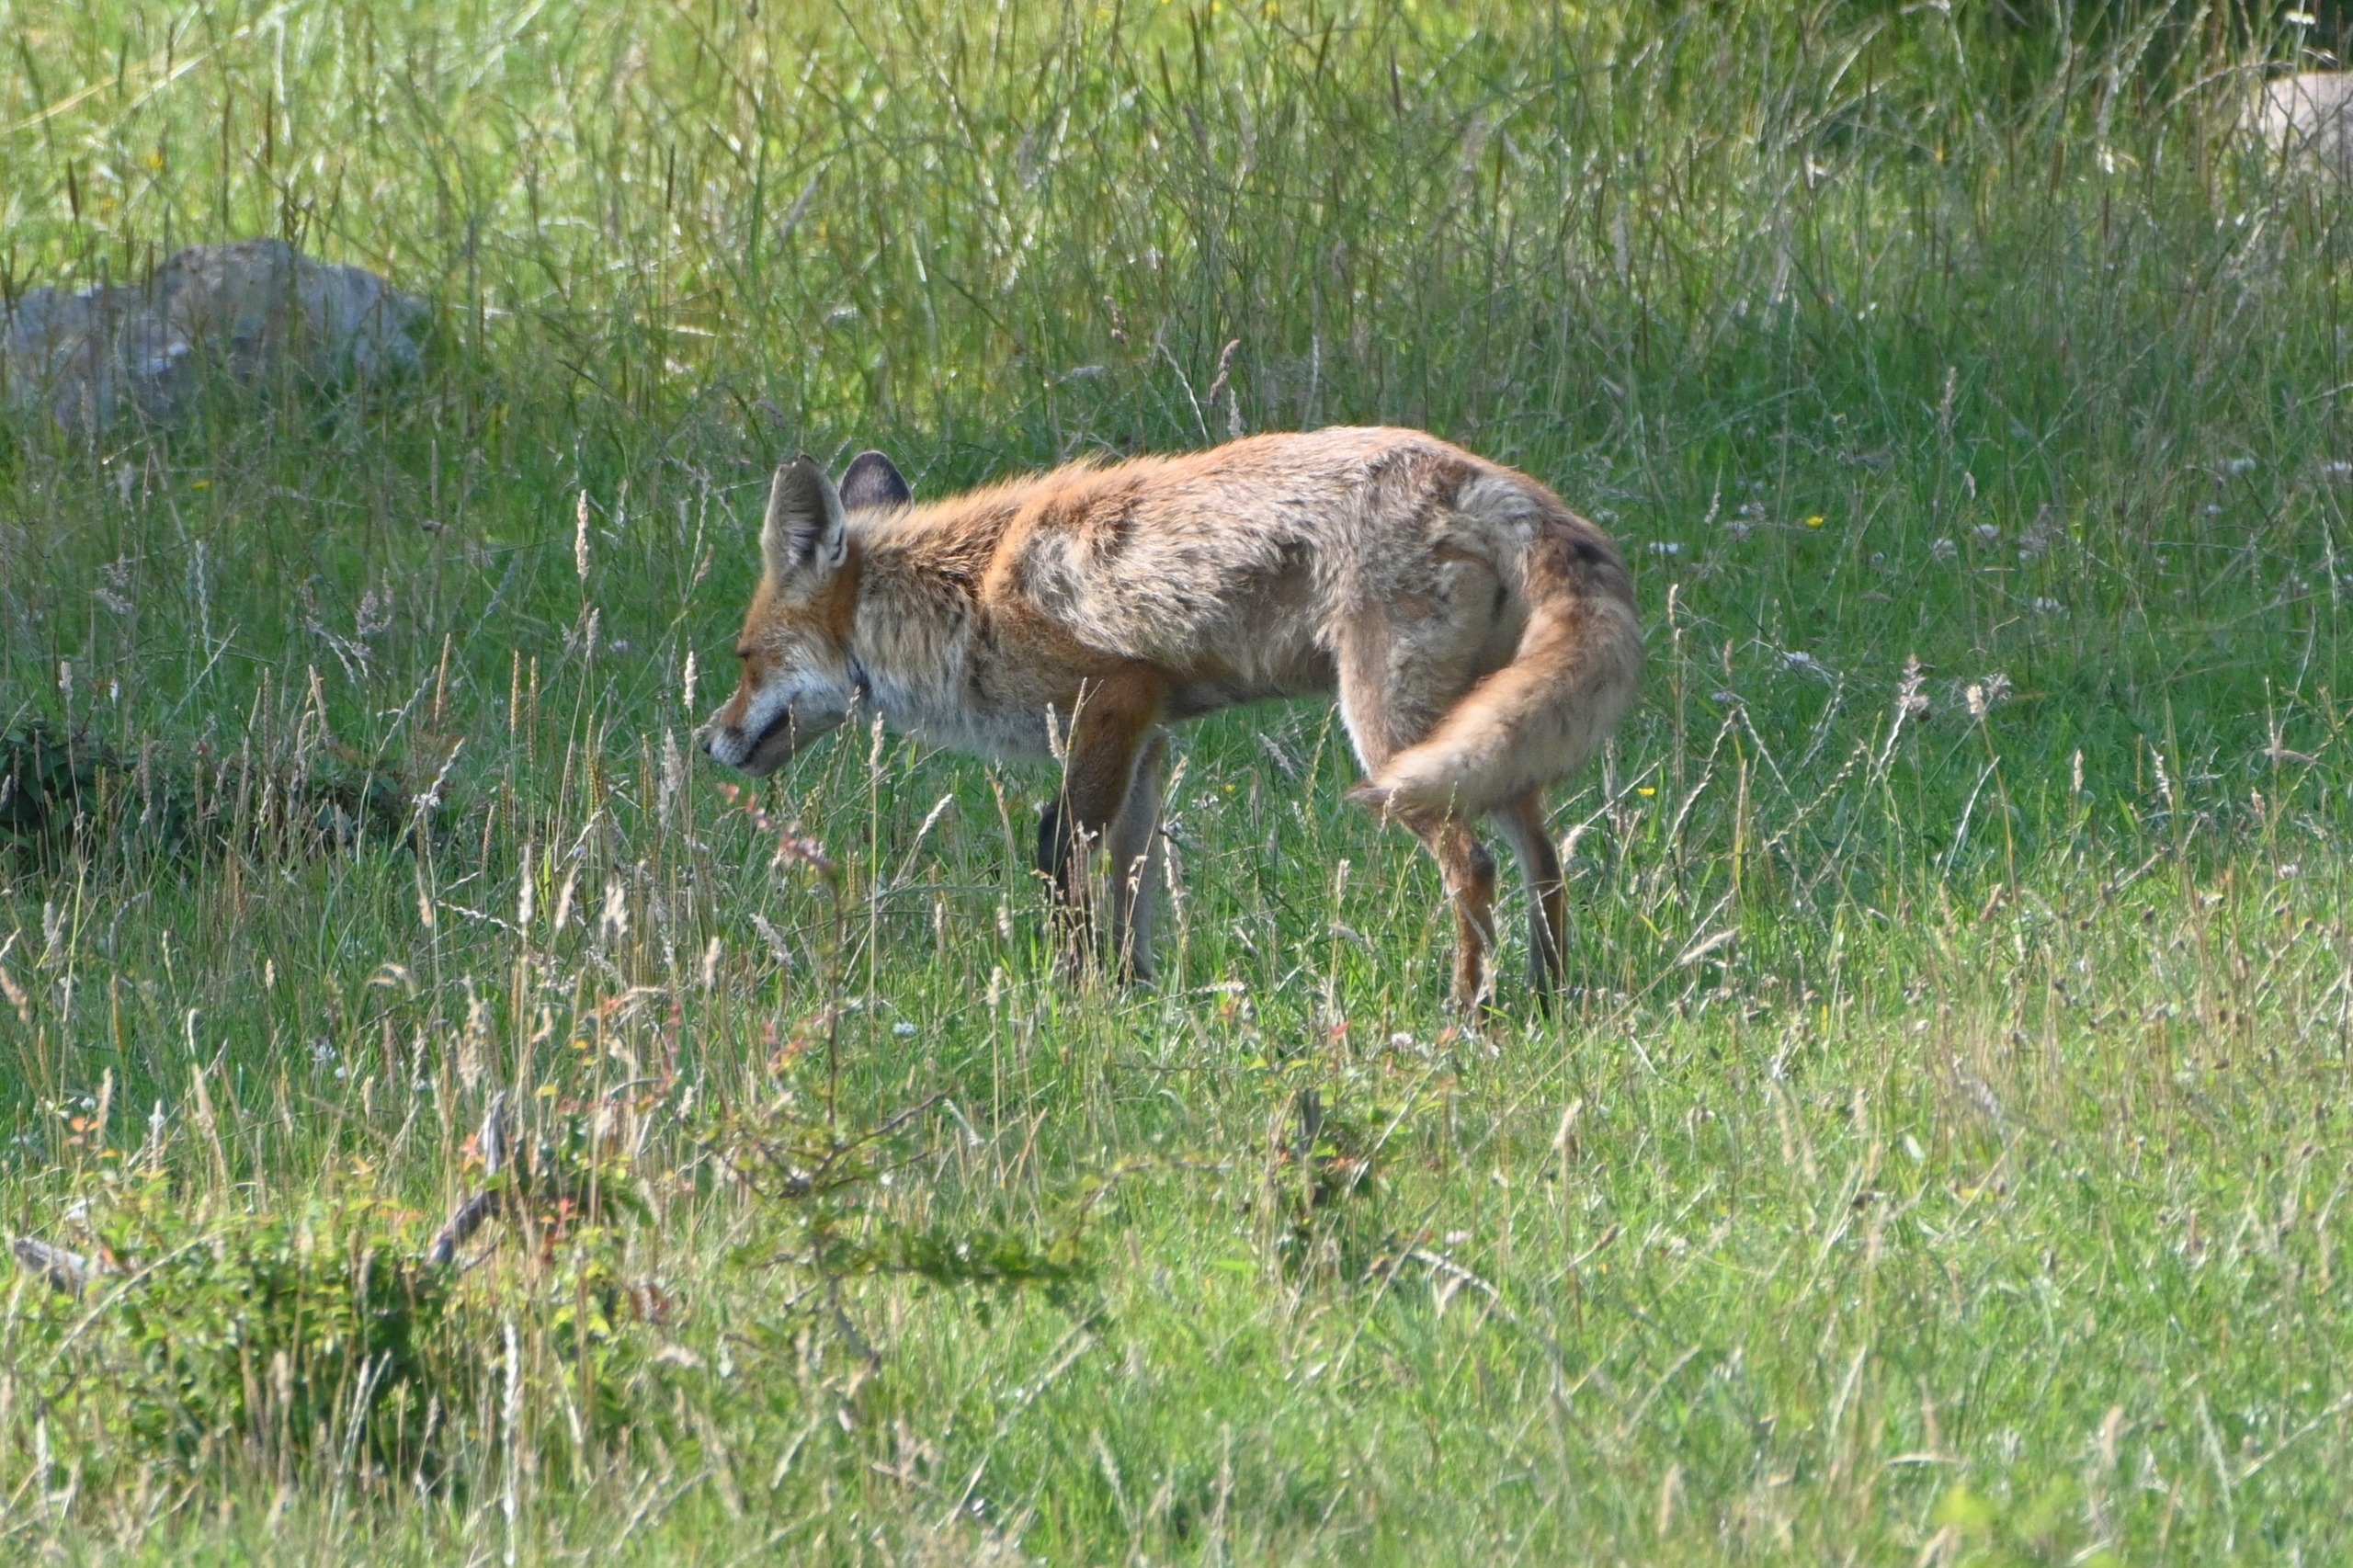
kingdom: Animalia
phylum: Chordata
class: Mammalia
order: Carnivora
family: Canidae
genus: Vulpes
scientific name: Vulpes vulpes
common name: Ræv
